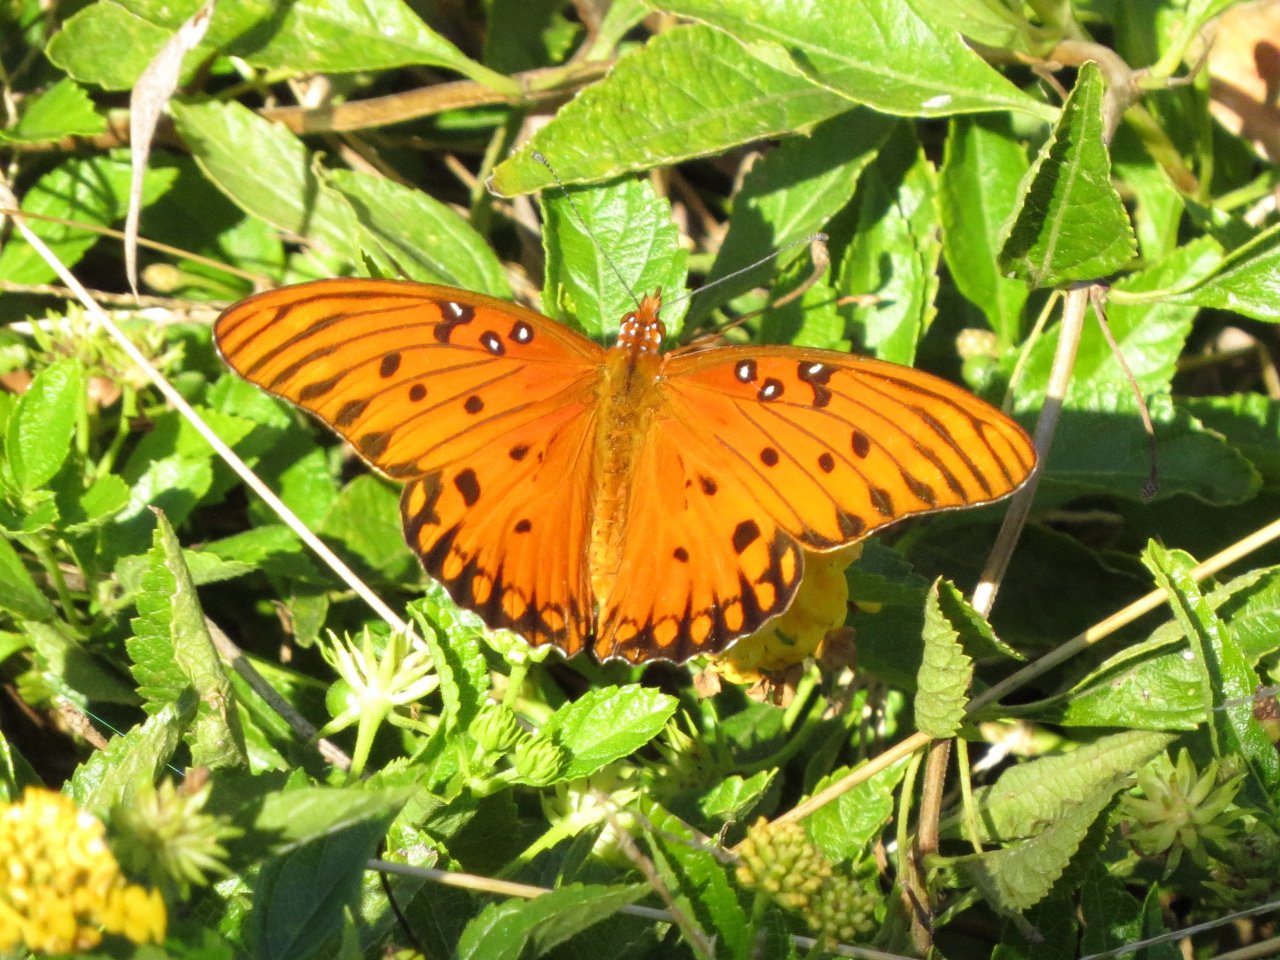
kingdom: Animalia
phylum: Arthropoda
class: Insecta
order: Lepidoptera
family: Nymphalidae
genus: Dione
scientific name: Dione vanillae
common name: Gulf Fritillary
